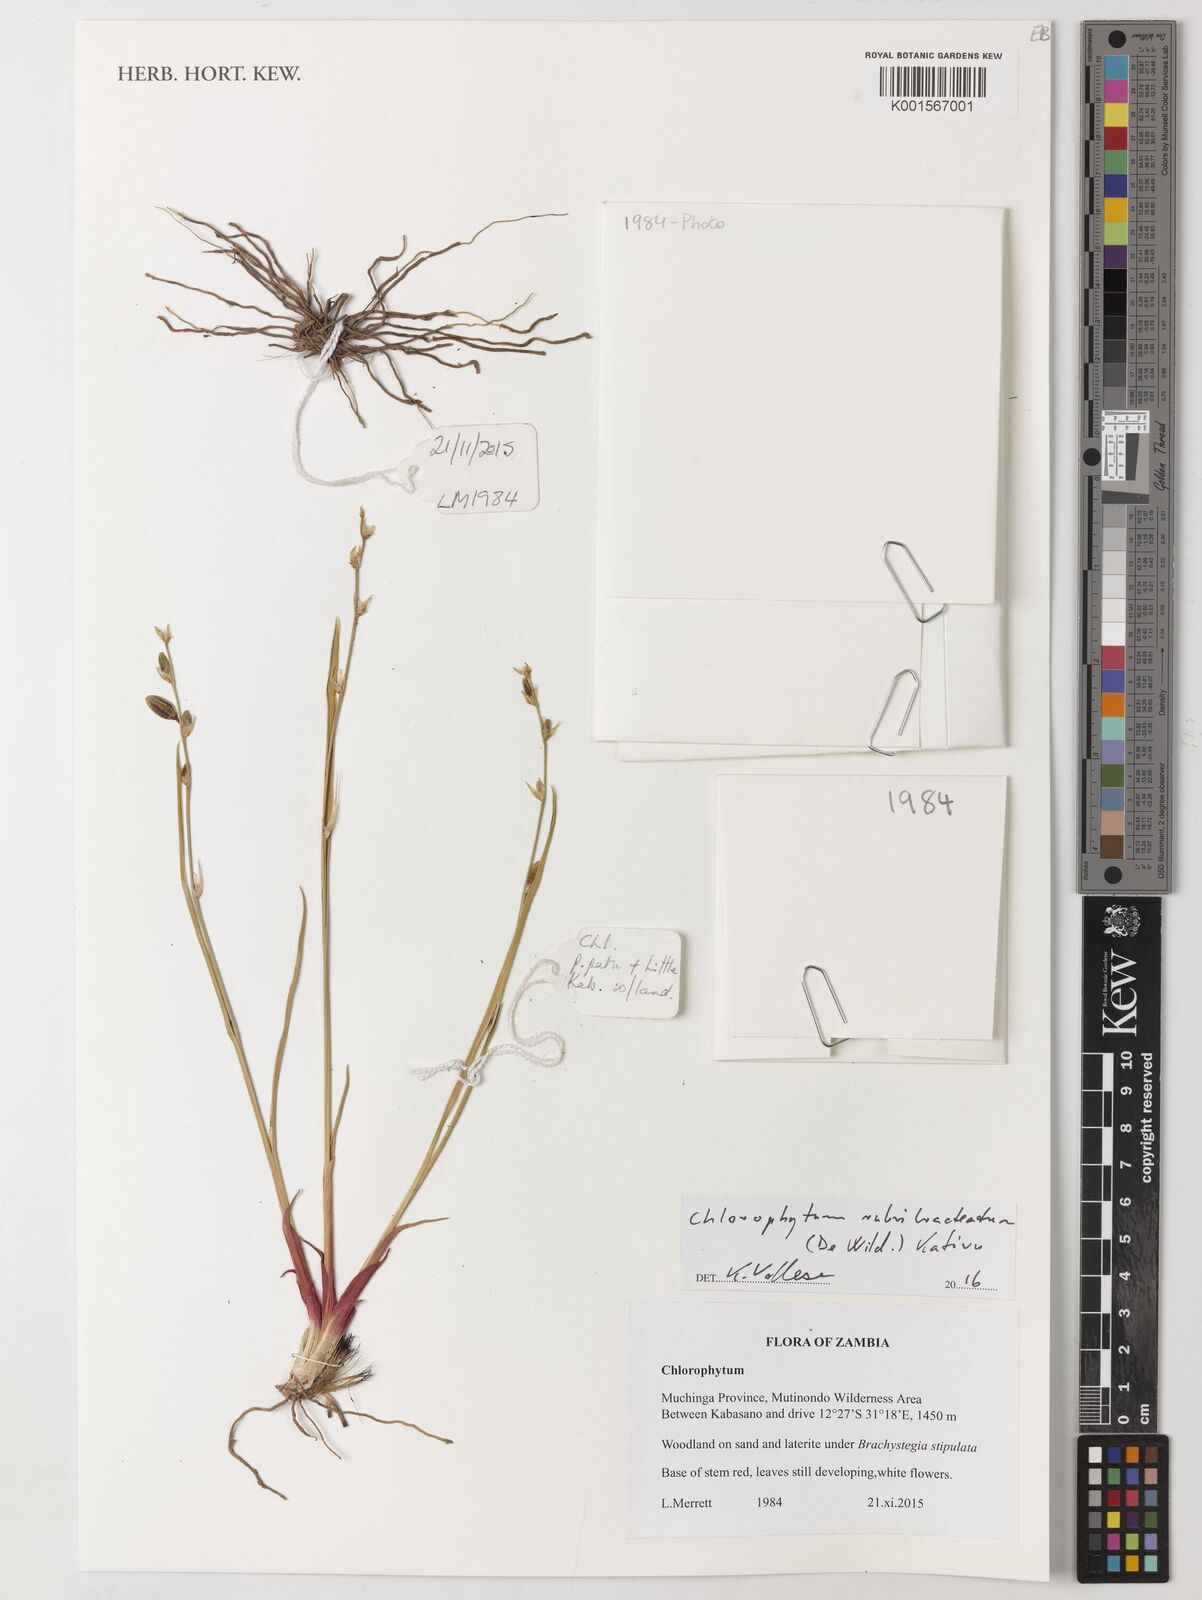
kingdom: Plantae
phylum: Tracheophyta
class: Liliopsida
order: Asparagales
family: Asparagaceae
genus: Chlorophytum
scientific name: Chlorophytum rubribracteatum
